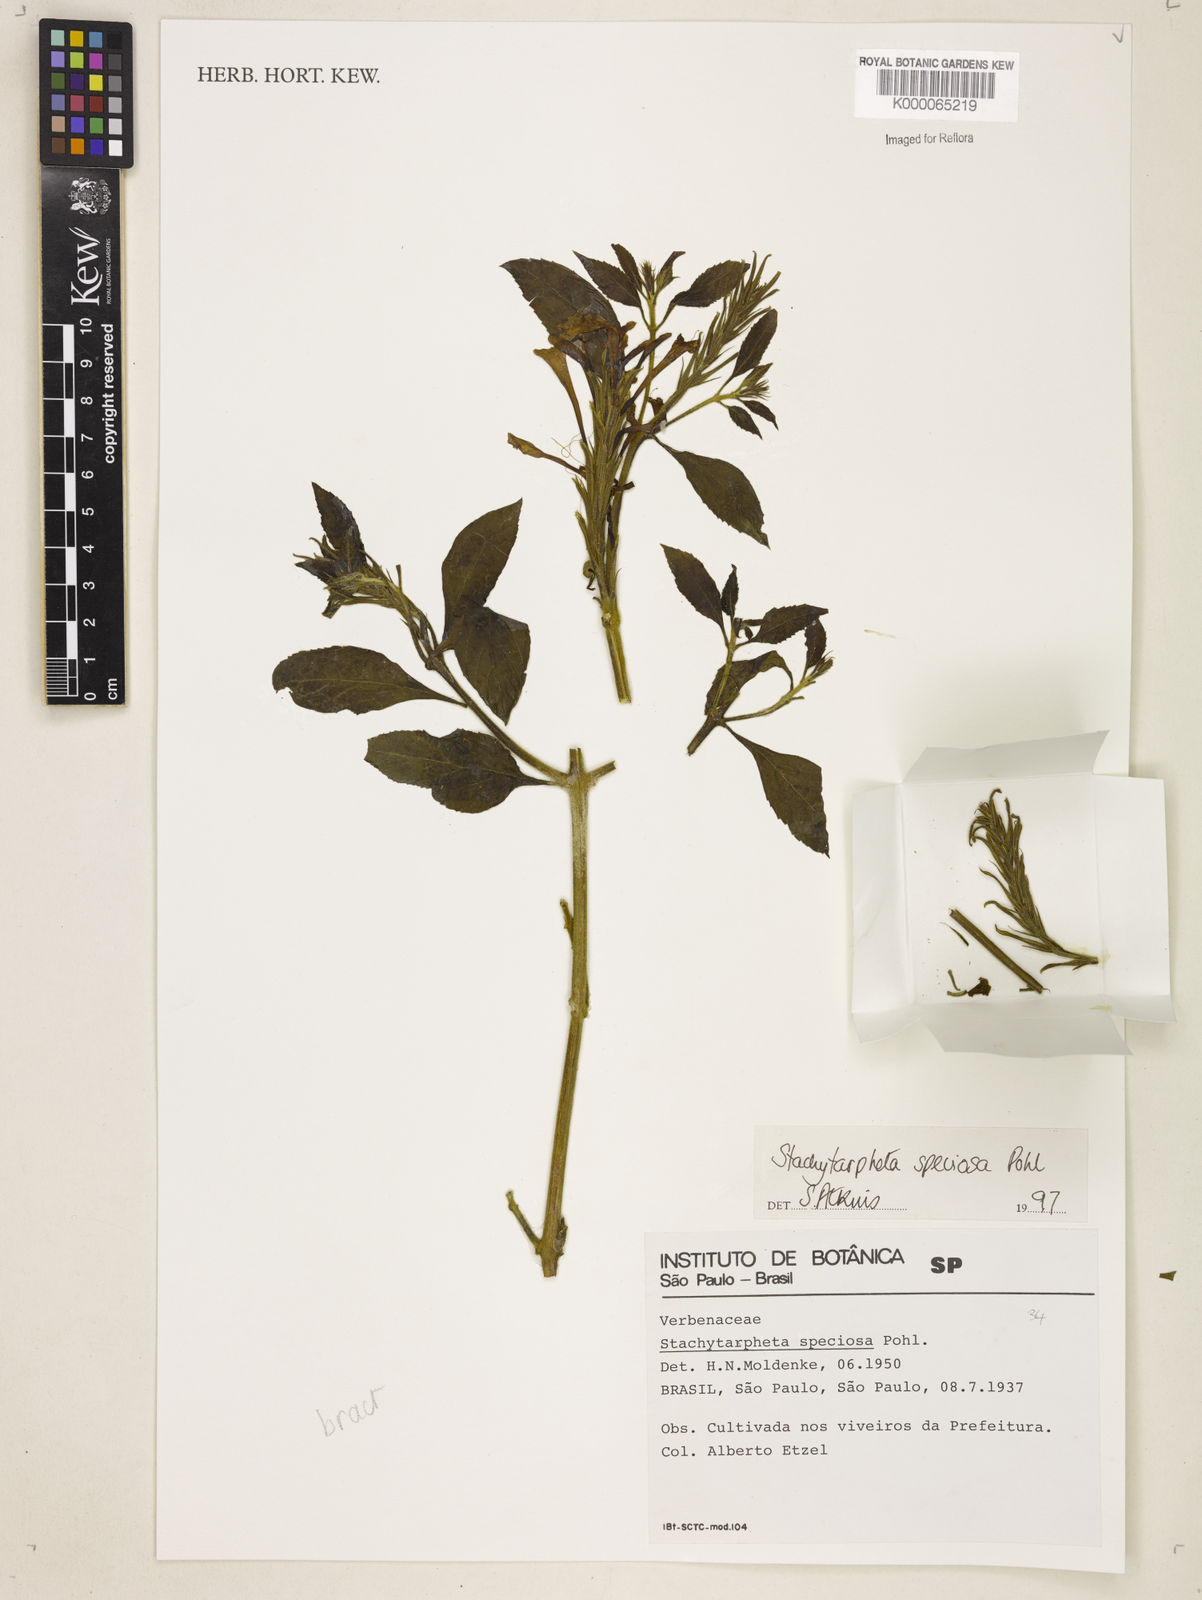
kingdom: Plantae
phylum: Tracheophyta
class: Magnoliopsida
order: Lamiales
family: Verbenaceae
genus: Stachytarpheta
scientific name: Stachytarpheta
